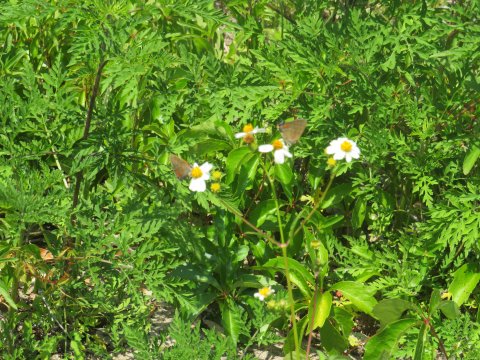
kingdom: Animalia
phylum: Arthropoda
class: Insecta
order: Lepidoptera
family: Lycaenidae
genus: Fixsenia
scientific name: Fixsenia favonius
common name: Oak Hairstreak
